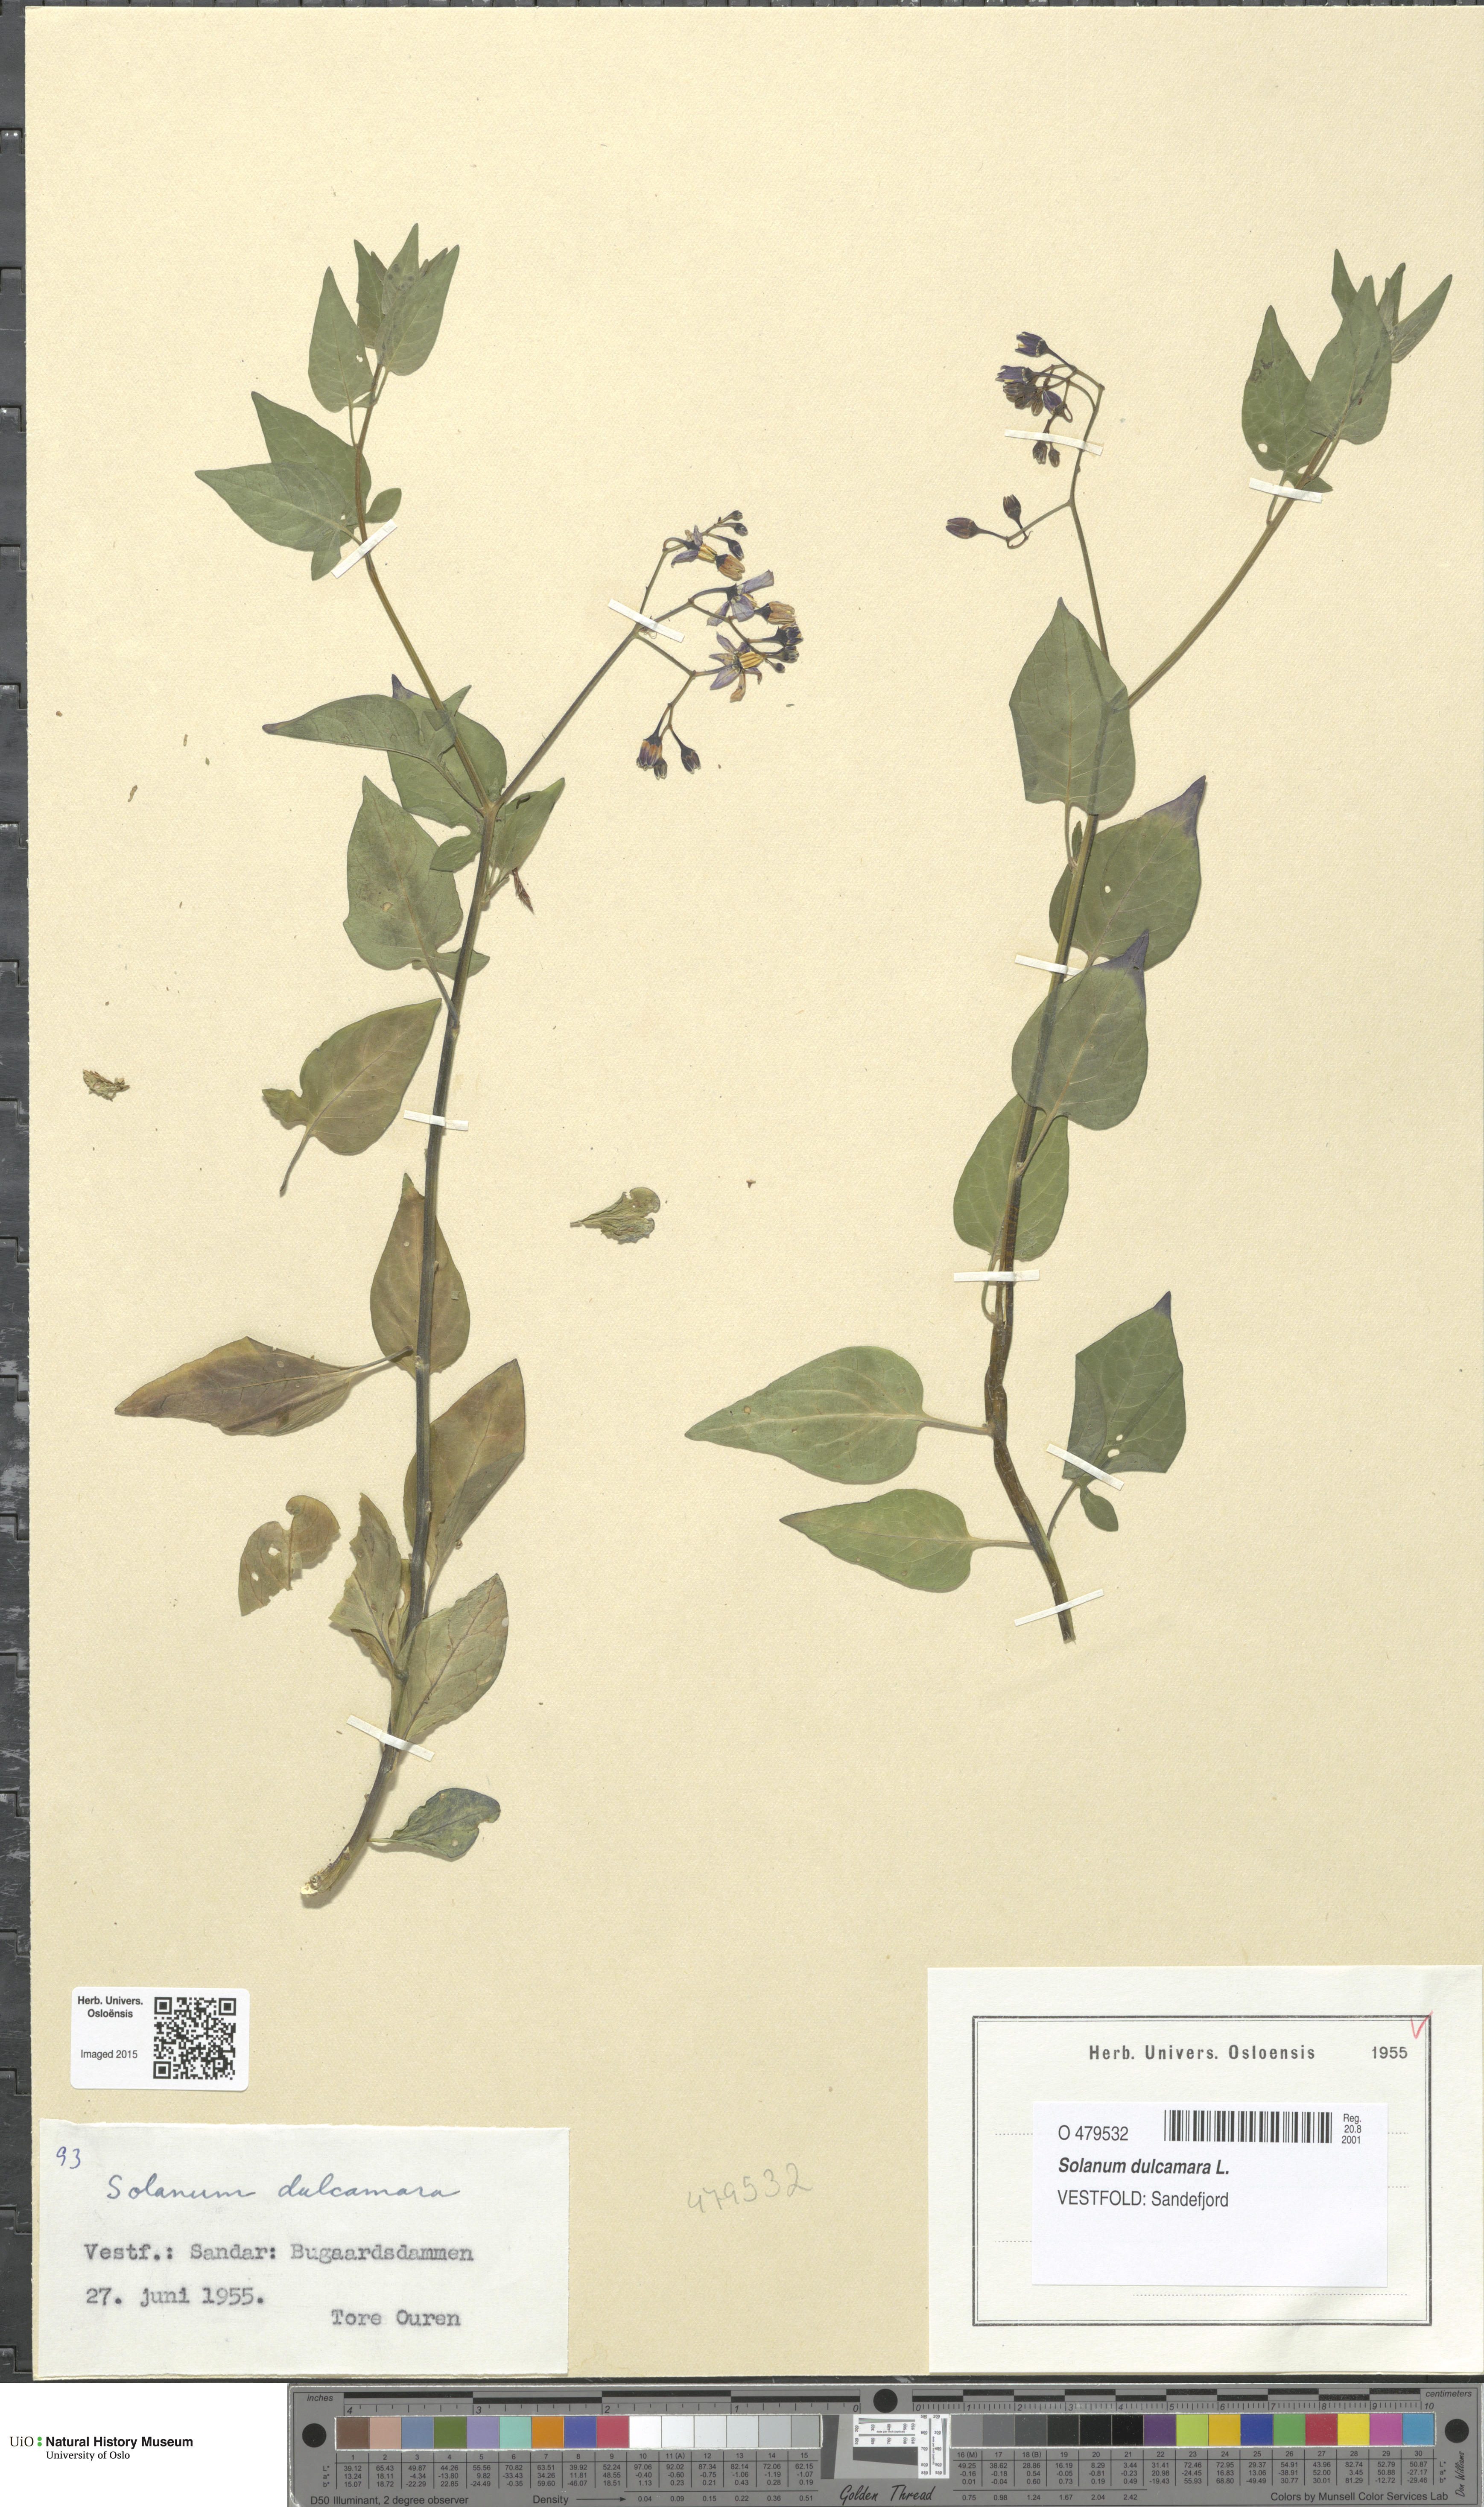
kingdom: Plantae
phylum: Tracheophyta
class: Magnoliopsida
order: Solanales
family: Solanaceae
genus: Solanum
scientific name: Solanum dulcamara
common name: Climbing nightshade
